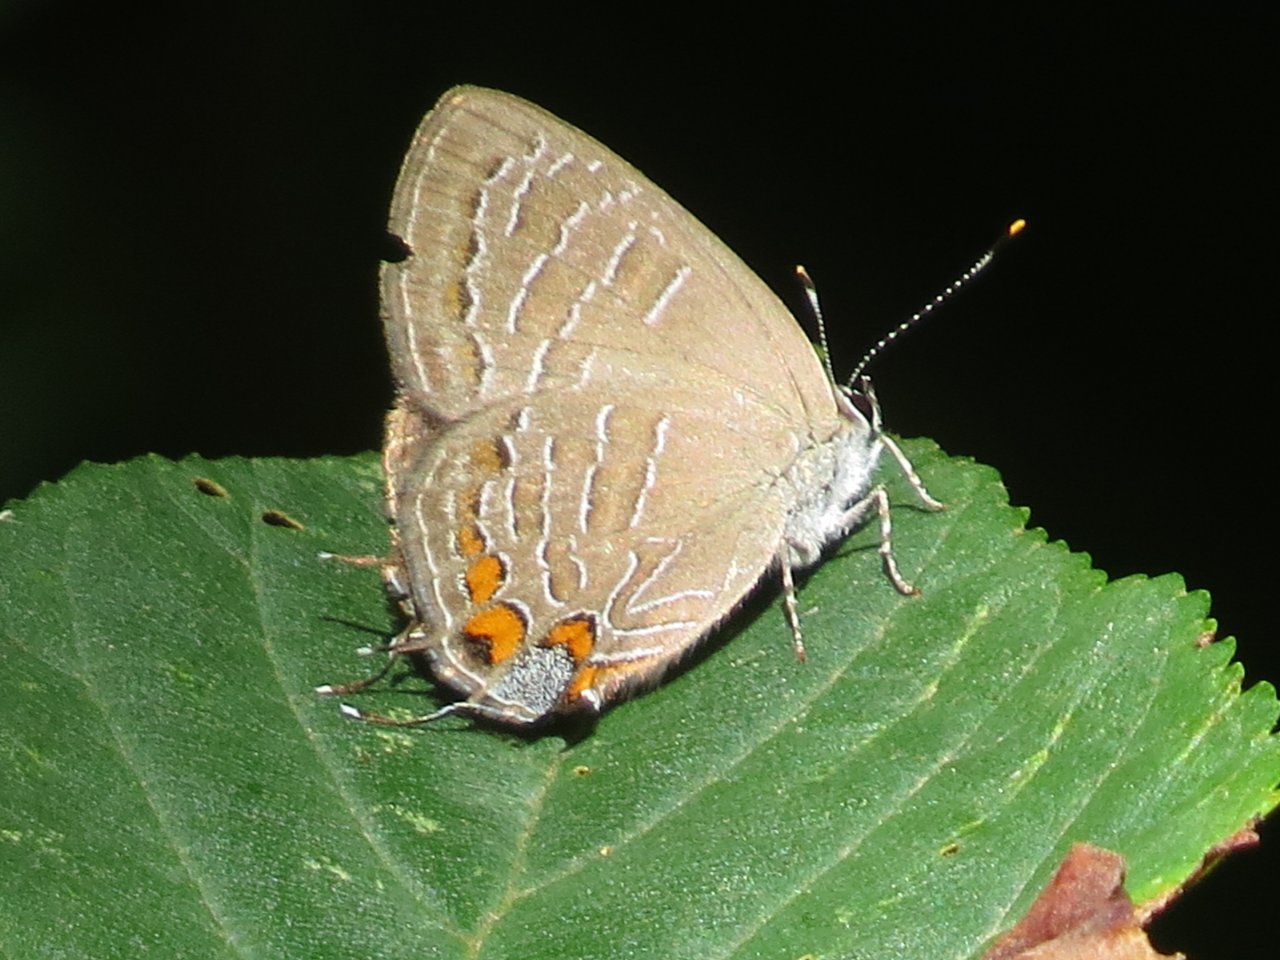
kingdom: Animalia
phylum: Arthropoda
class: Insecta
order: Lepidoptera
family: Lycaenidae
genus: Satyrium
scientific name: Satyrium liparops
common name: Striped Hairstreak
